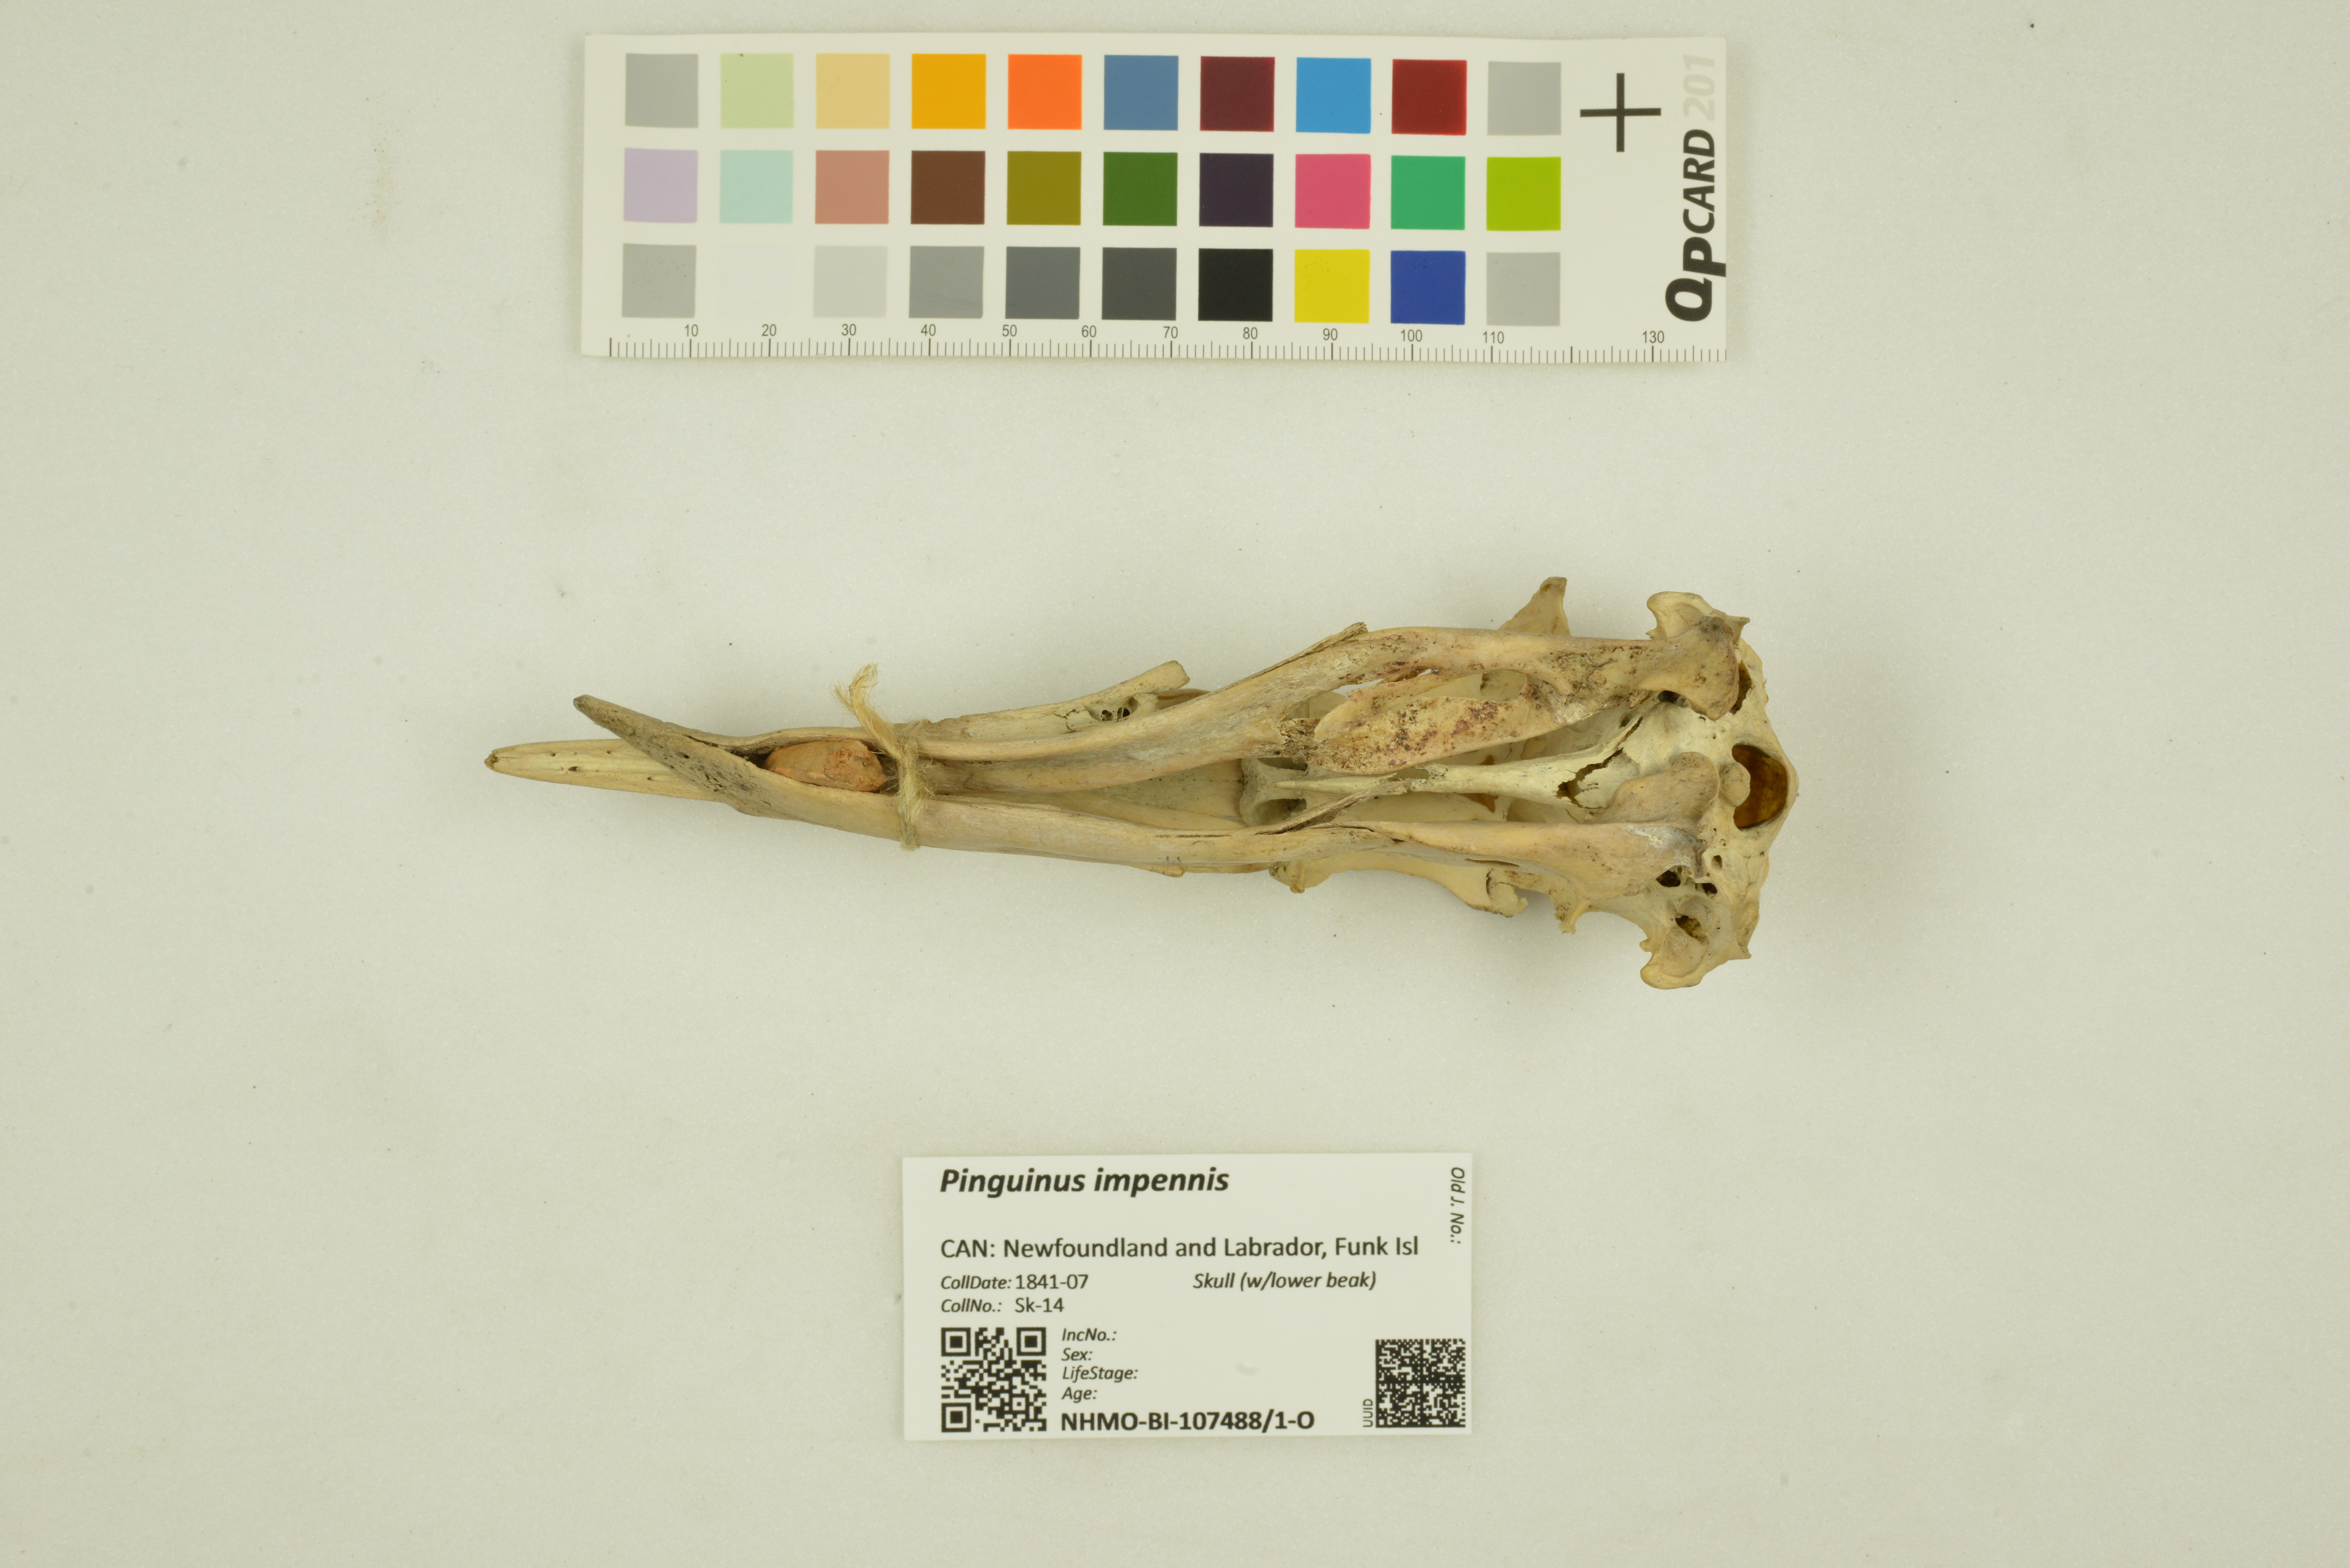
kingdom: Animalia
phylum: Chordata
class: Aves
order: Charadriiformes
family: Alcidae
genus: Pinguinus
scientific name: Pinguinus impennis
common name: Great auk
